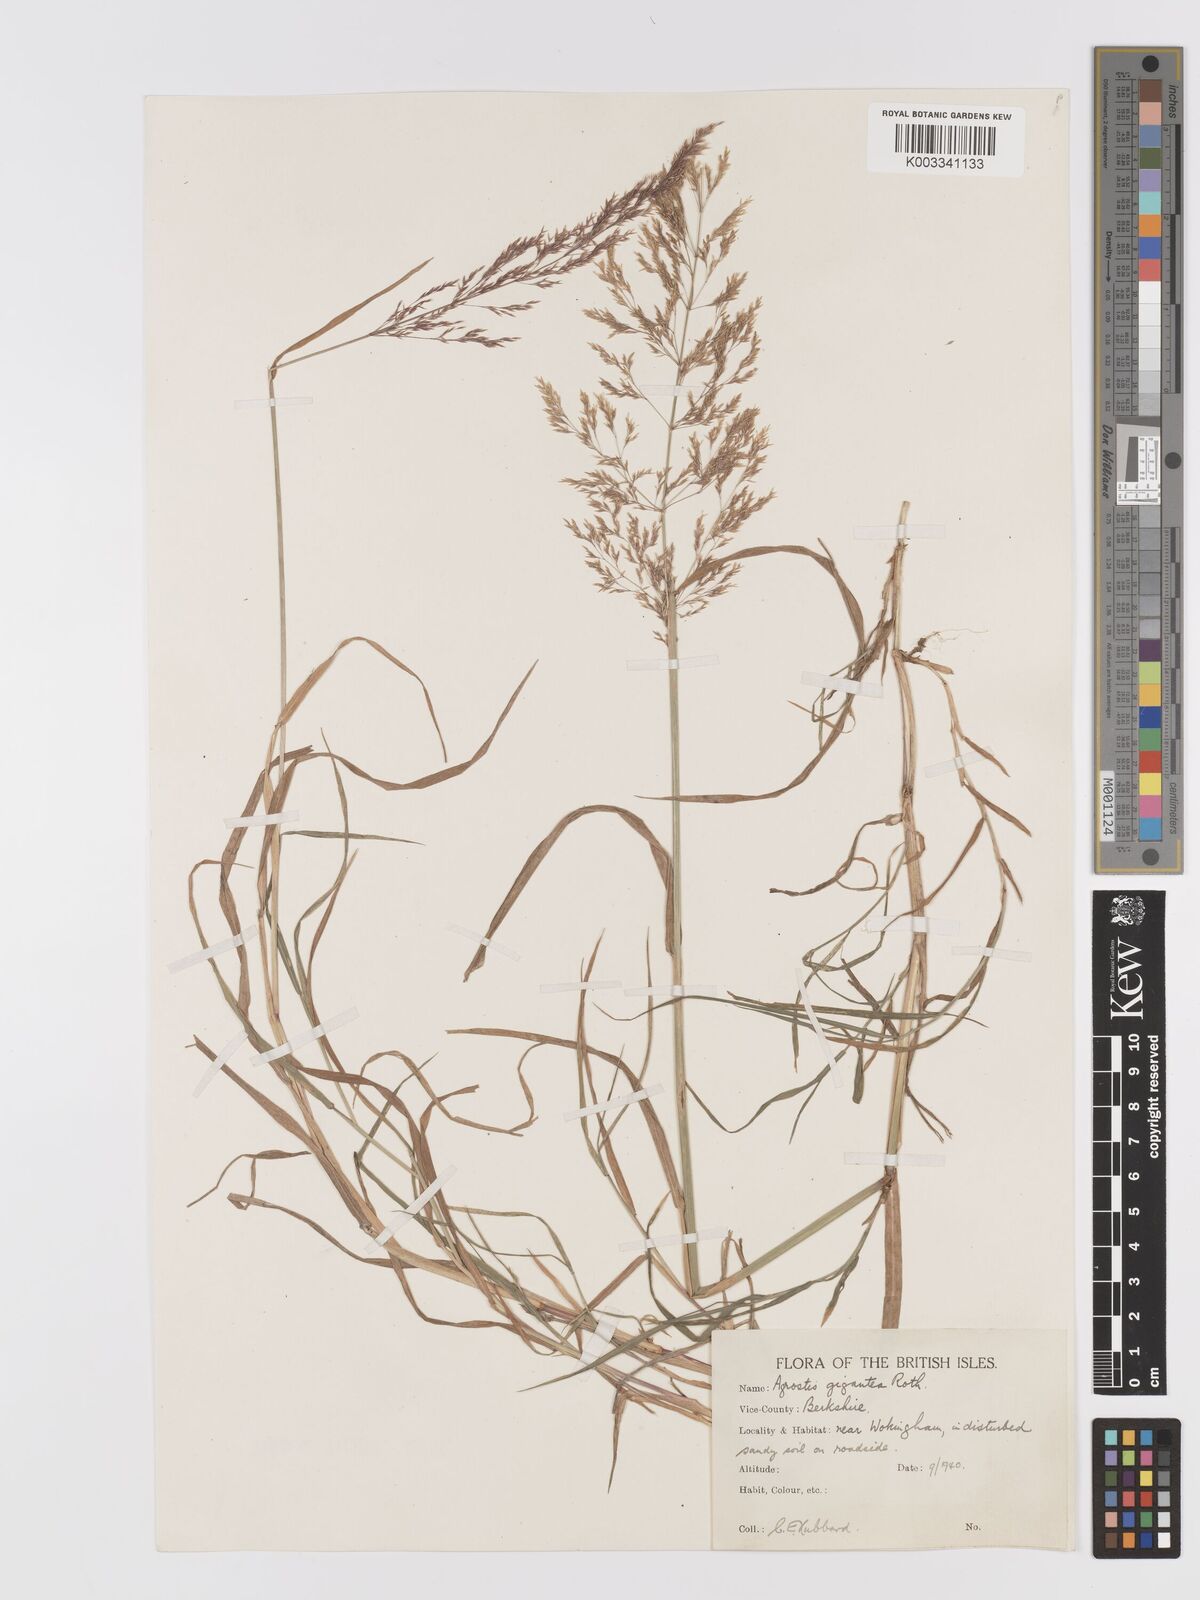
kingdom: Plantae
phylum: Tracheophyta
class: Liliopsida
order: Poales
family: Poaceae
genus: Agrostis
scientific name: Agrostis gigantea
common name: Black bent
